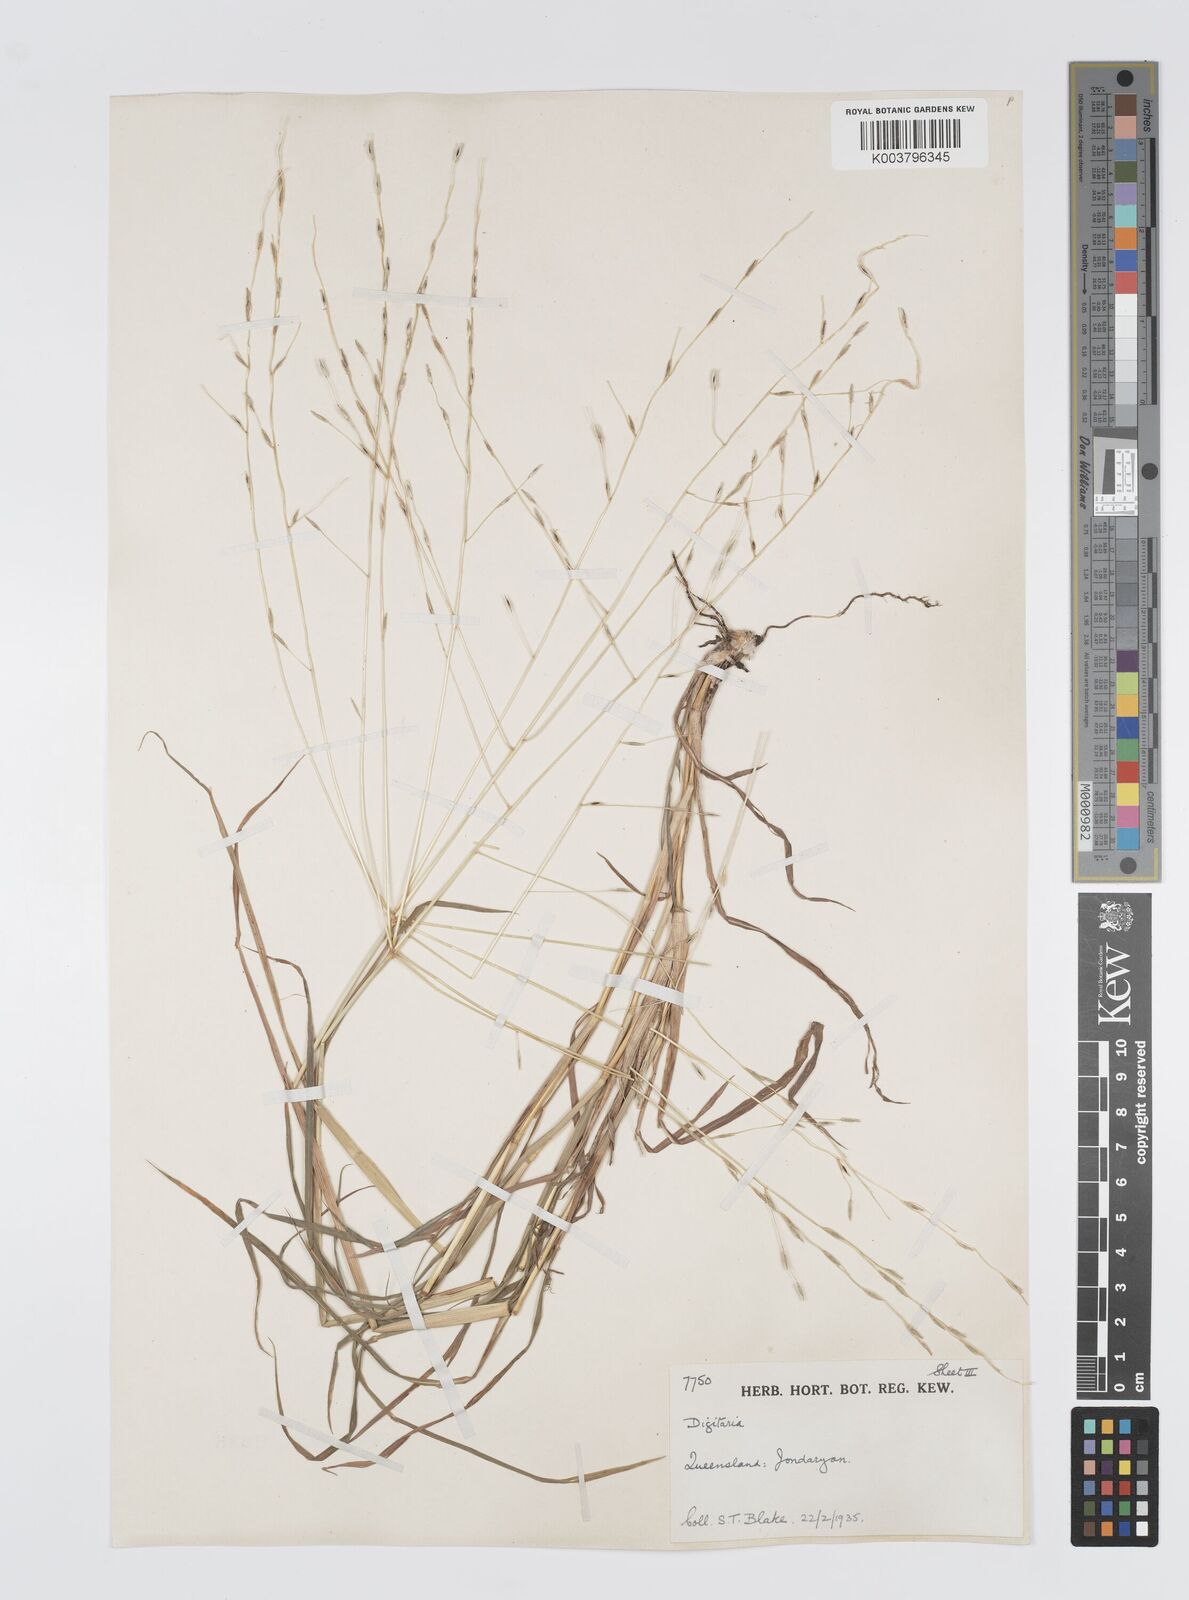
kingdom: Plantae
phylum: Tracheophyta
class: Liliopsida
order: Poales
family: Poaceae
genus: Digitaria
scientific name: Digitaria divaricatissima
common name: Crabgrass
